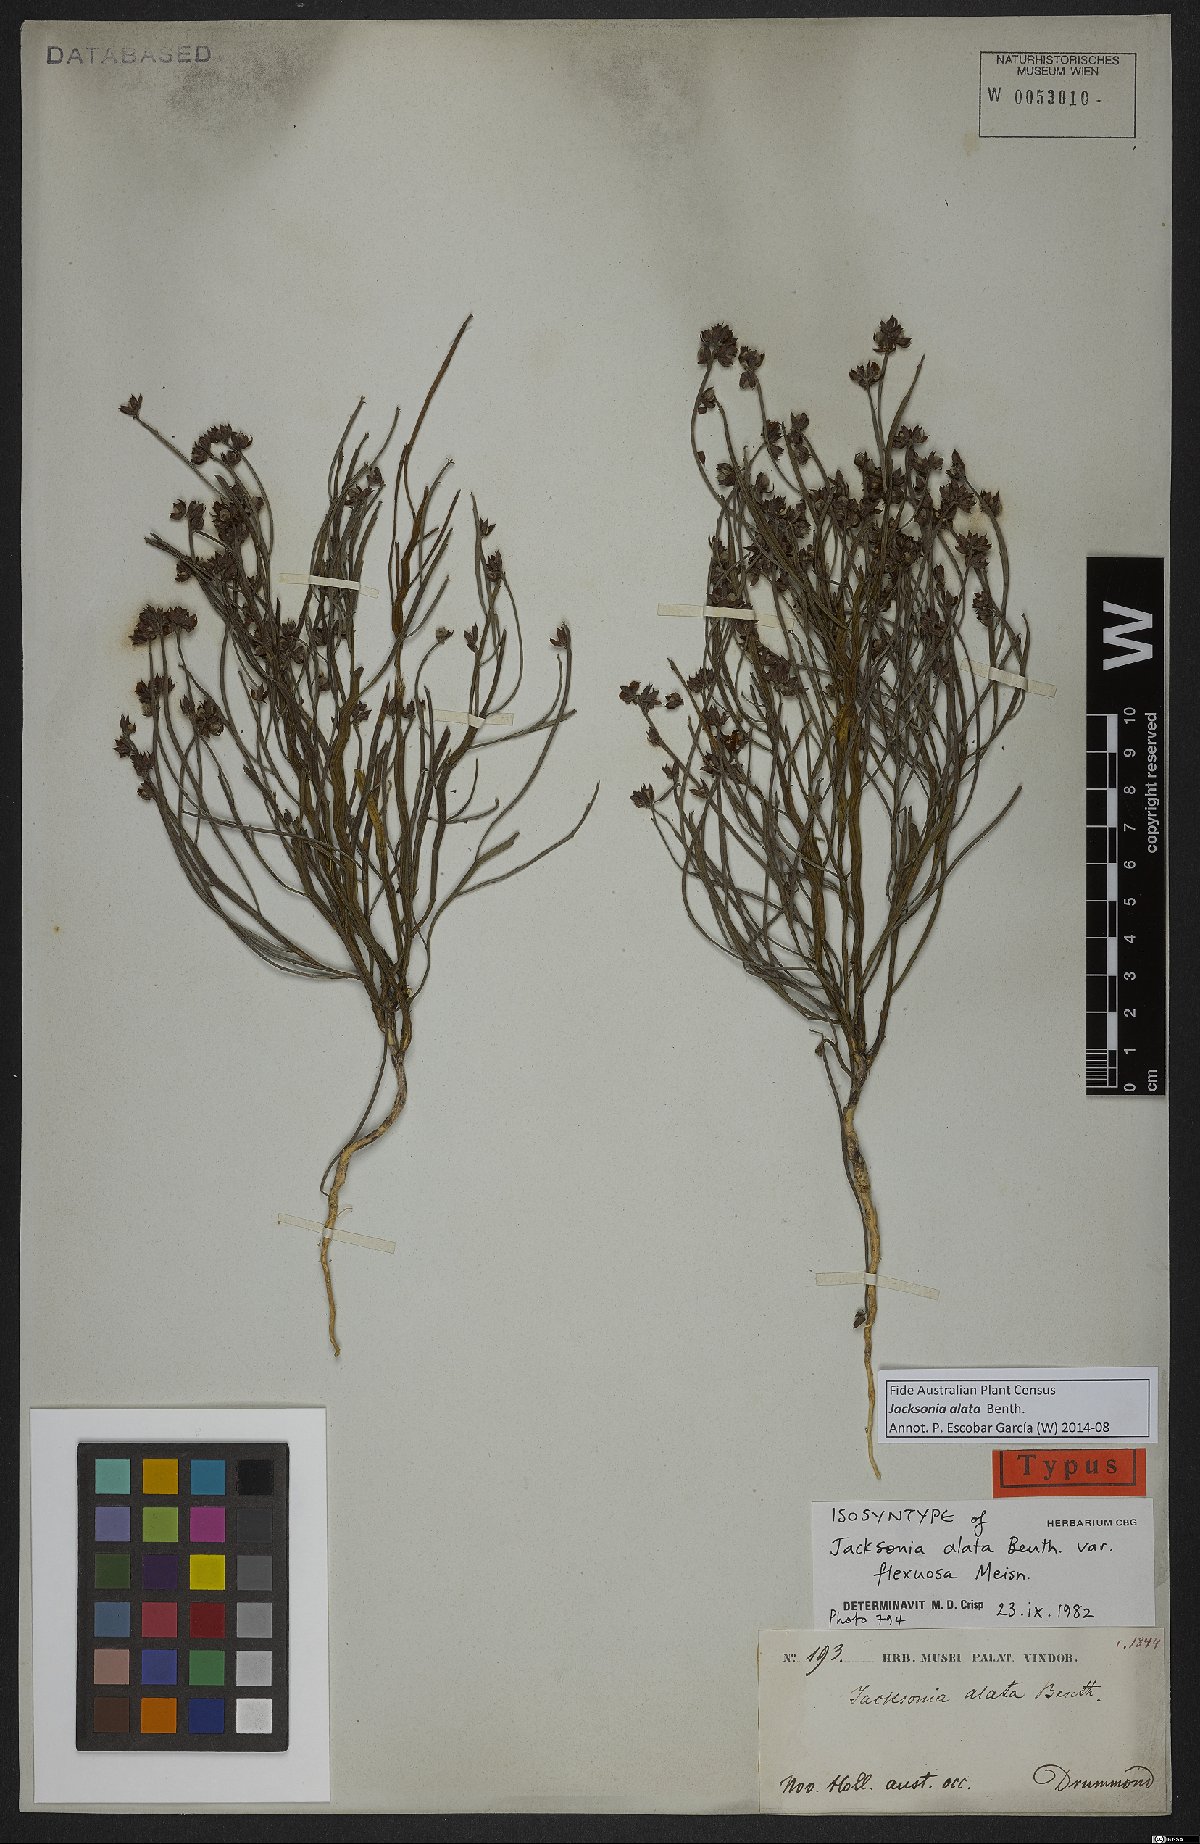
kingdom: Plantae
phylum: Tracheophyta
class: Magnoliopsida
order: Fabales
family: Fabaceae
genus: Jacksonia
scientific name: Jacksonia alata
